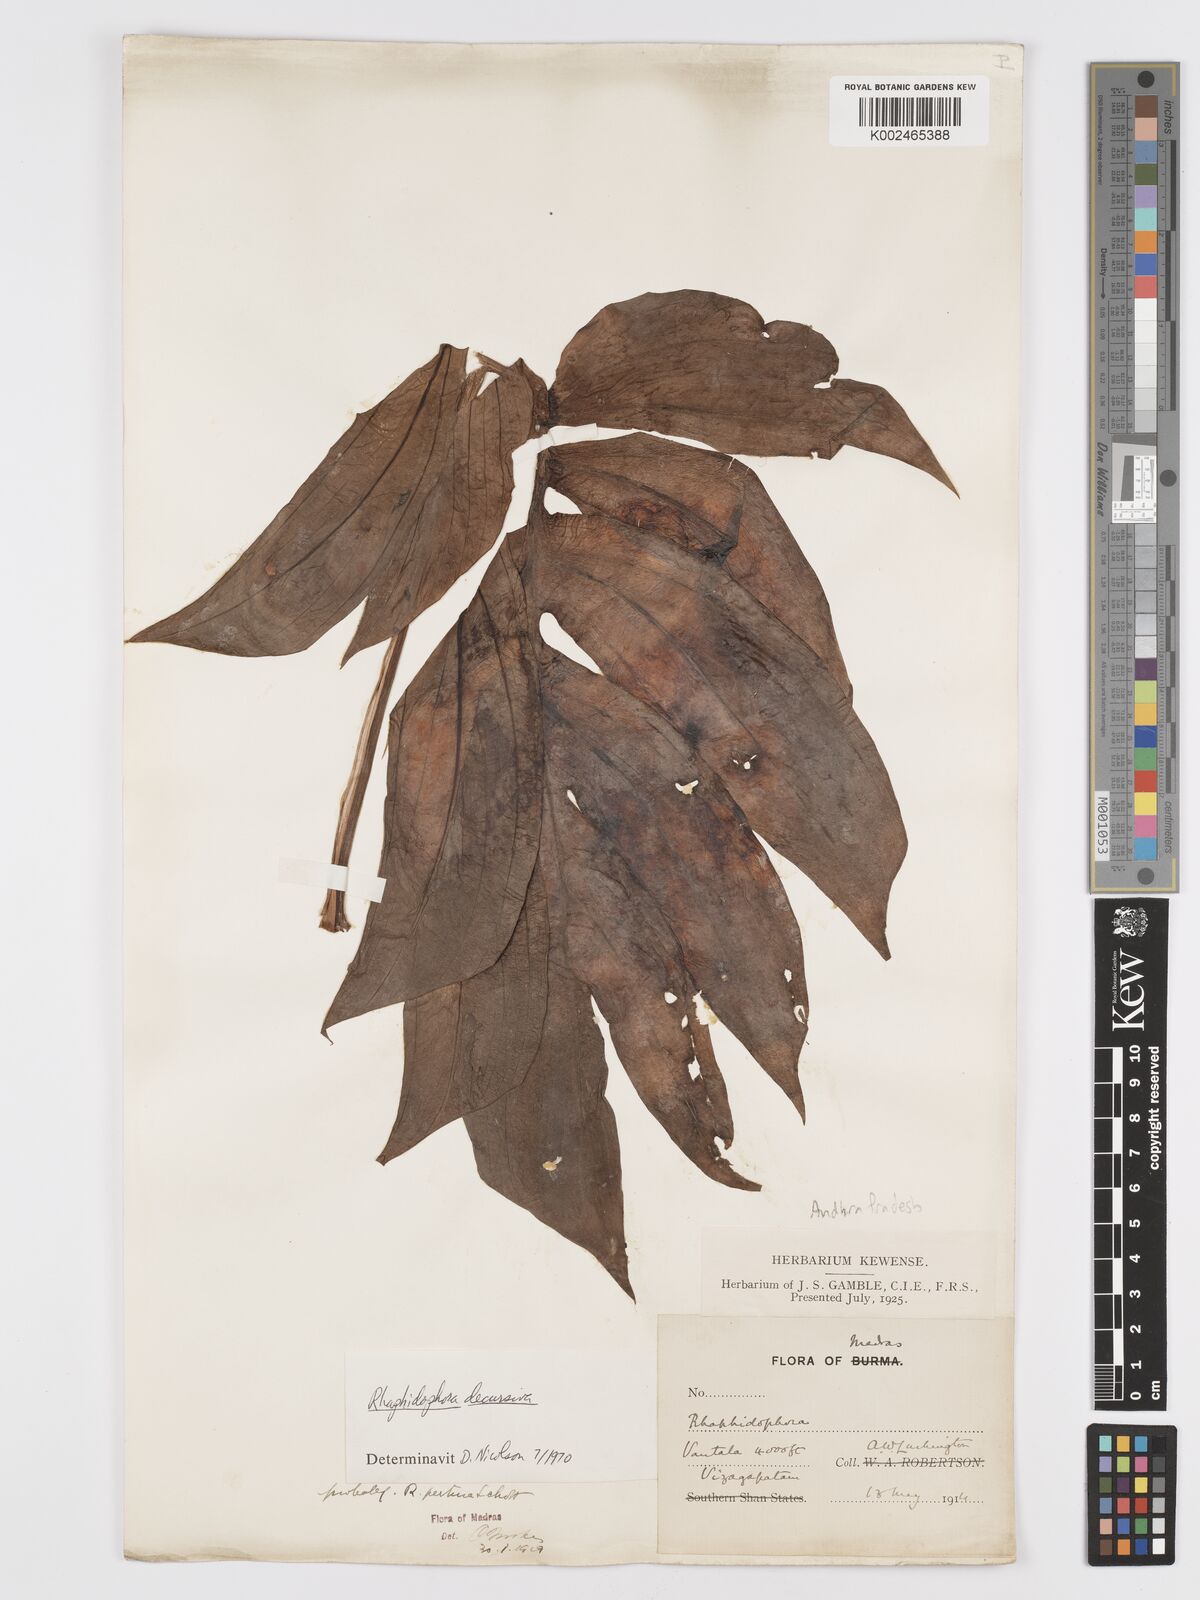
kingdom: Plantae
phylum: Tracheophyta
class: Liliopsida
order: Alismatales
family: Araceae
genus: Rhaphidophora
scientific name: Rhaphidophora decursiva
